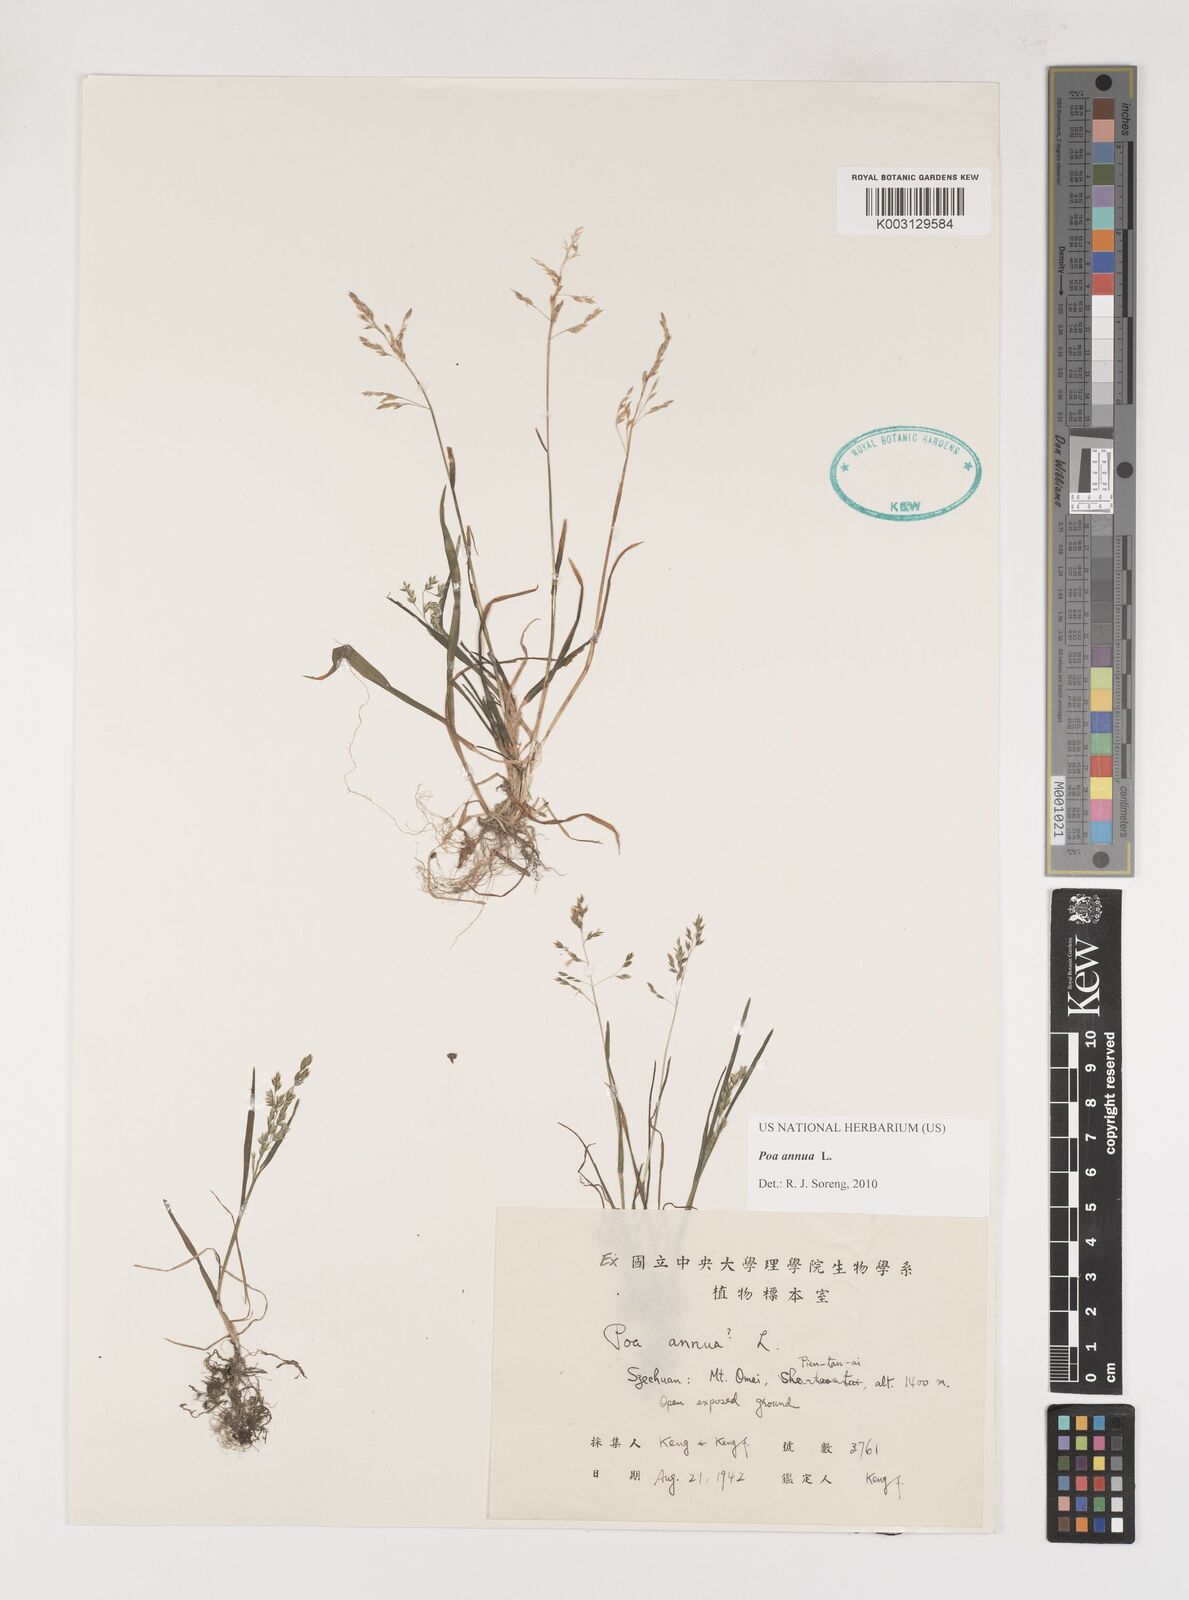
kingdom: Plantae
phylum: Tracheophyta
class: Liliopsida
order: Poales
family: Poaceae
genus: Poa
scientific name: Poa annua
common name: Annual bluegrass
